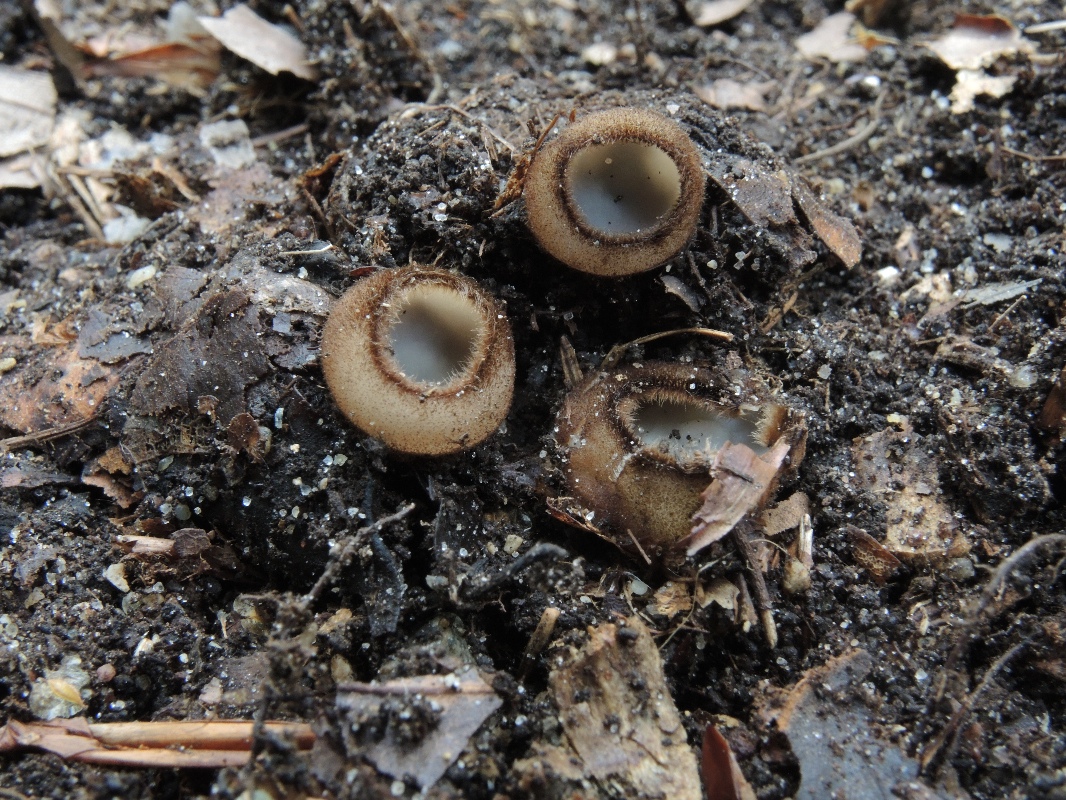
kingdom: Fungi
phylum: Ascomycota
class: Pezizomycetes
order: Pezizales
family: Pyronemataceae
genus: Humaria
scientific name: Humaria hemisphaerica
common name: halvkugleformet børstebæger
